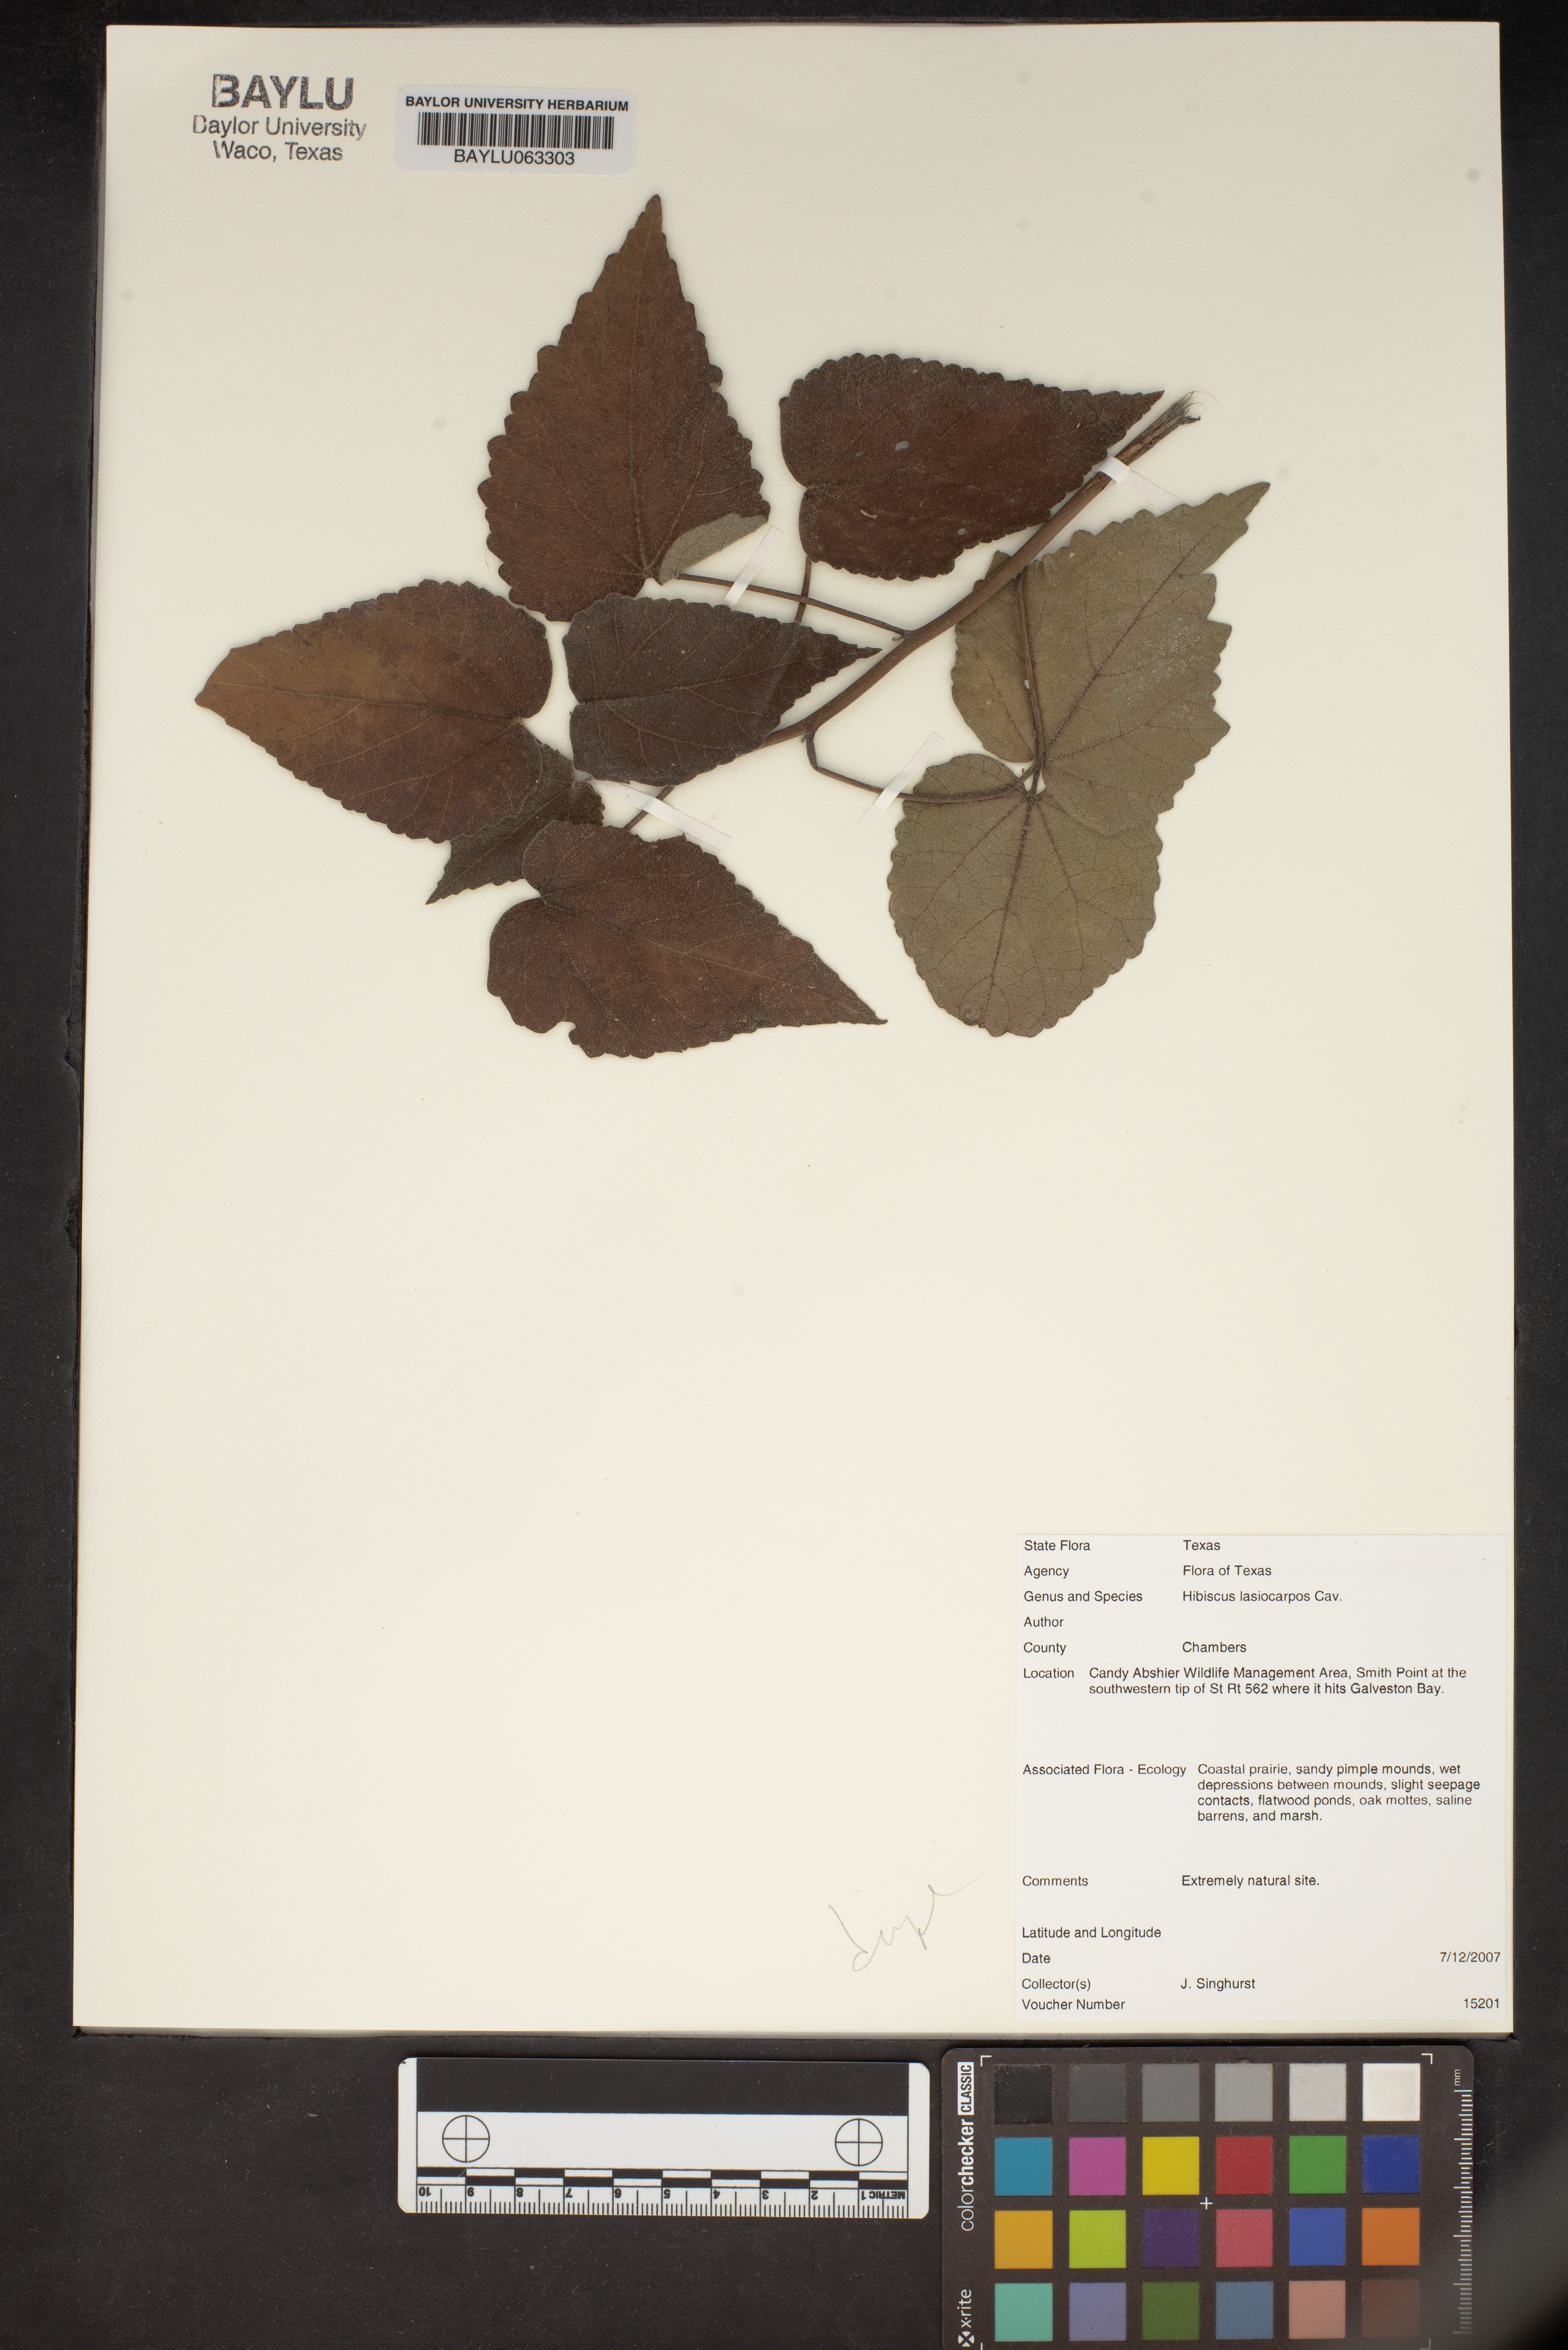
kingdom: Plantae
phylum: Tracheophyta
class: Magnoliopsida
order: Malvales
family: Malvaceae
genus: Hibiscus
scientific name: Hibiscus moscheutos
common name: Common rose-mallow
